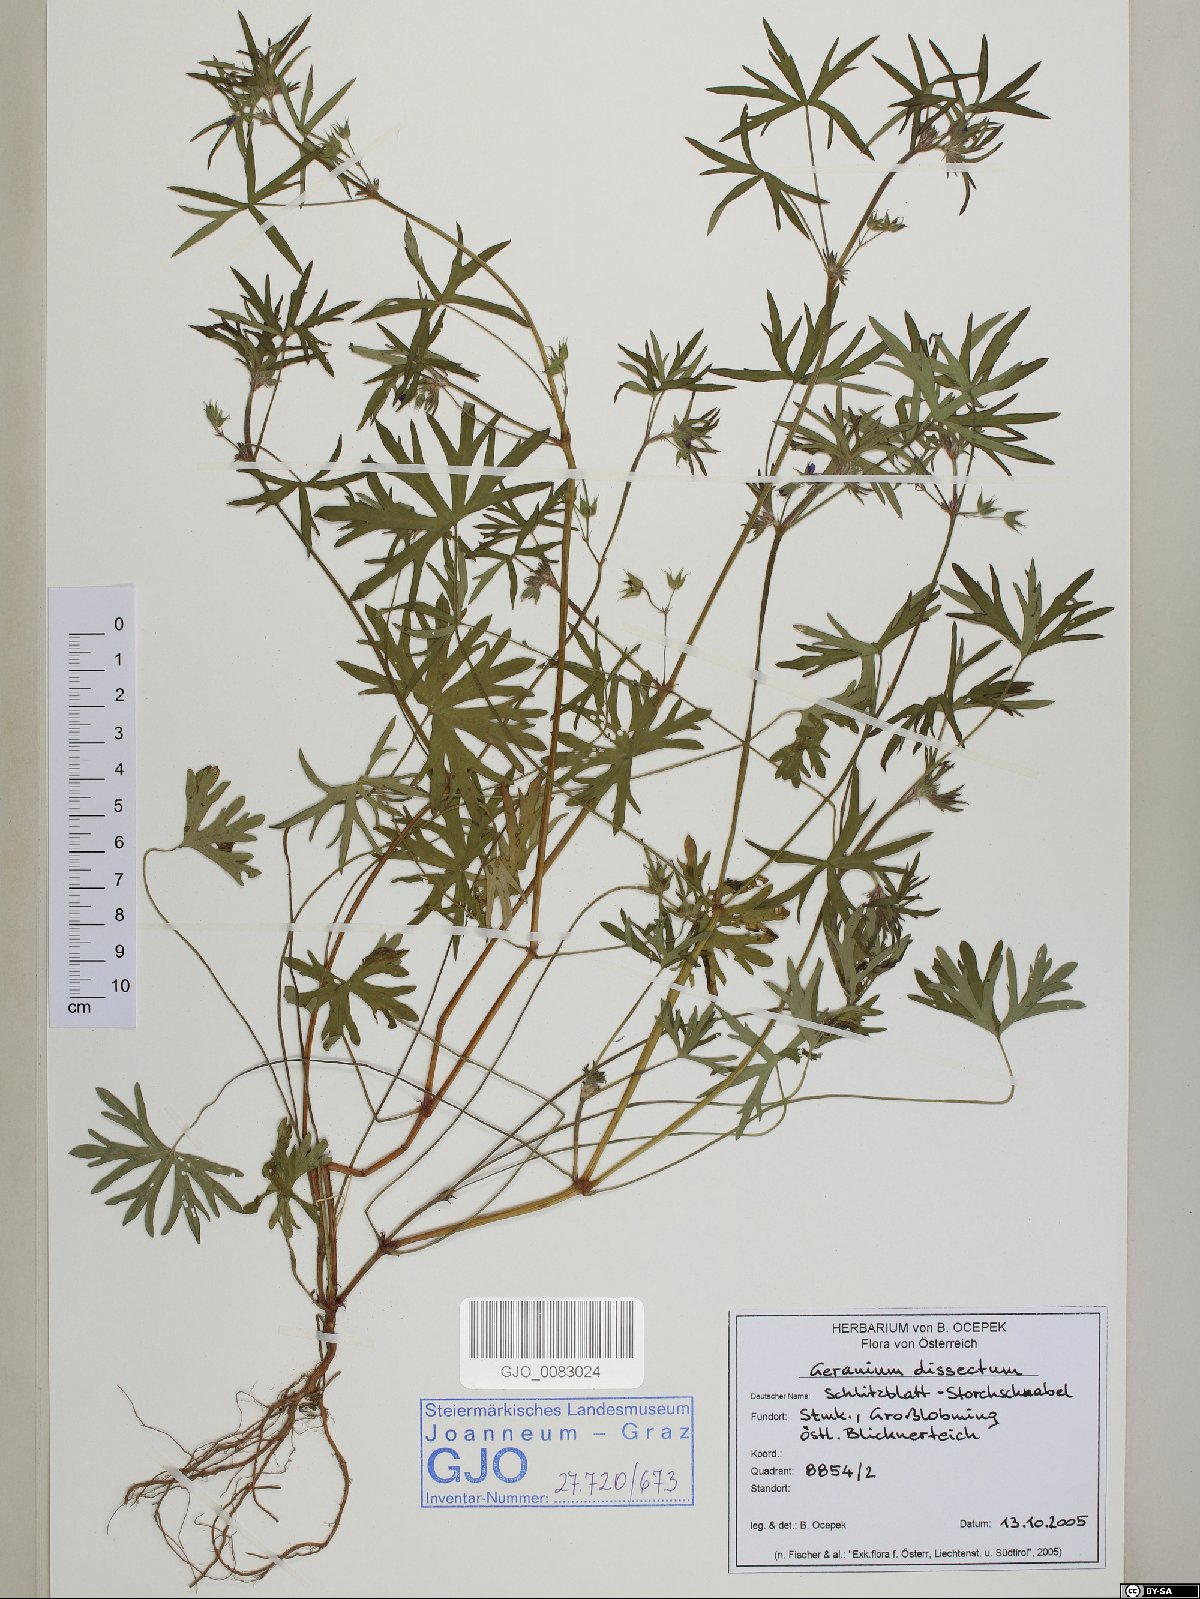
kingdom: Plantae
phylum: Tracheophyta
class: Magnoliopsida
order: Geraniales
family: Geraniaceae
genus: Geranium
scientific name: Geranium dissectum
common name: Cut-leaved crane's-bill
